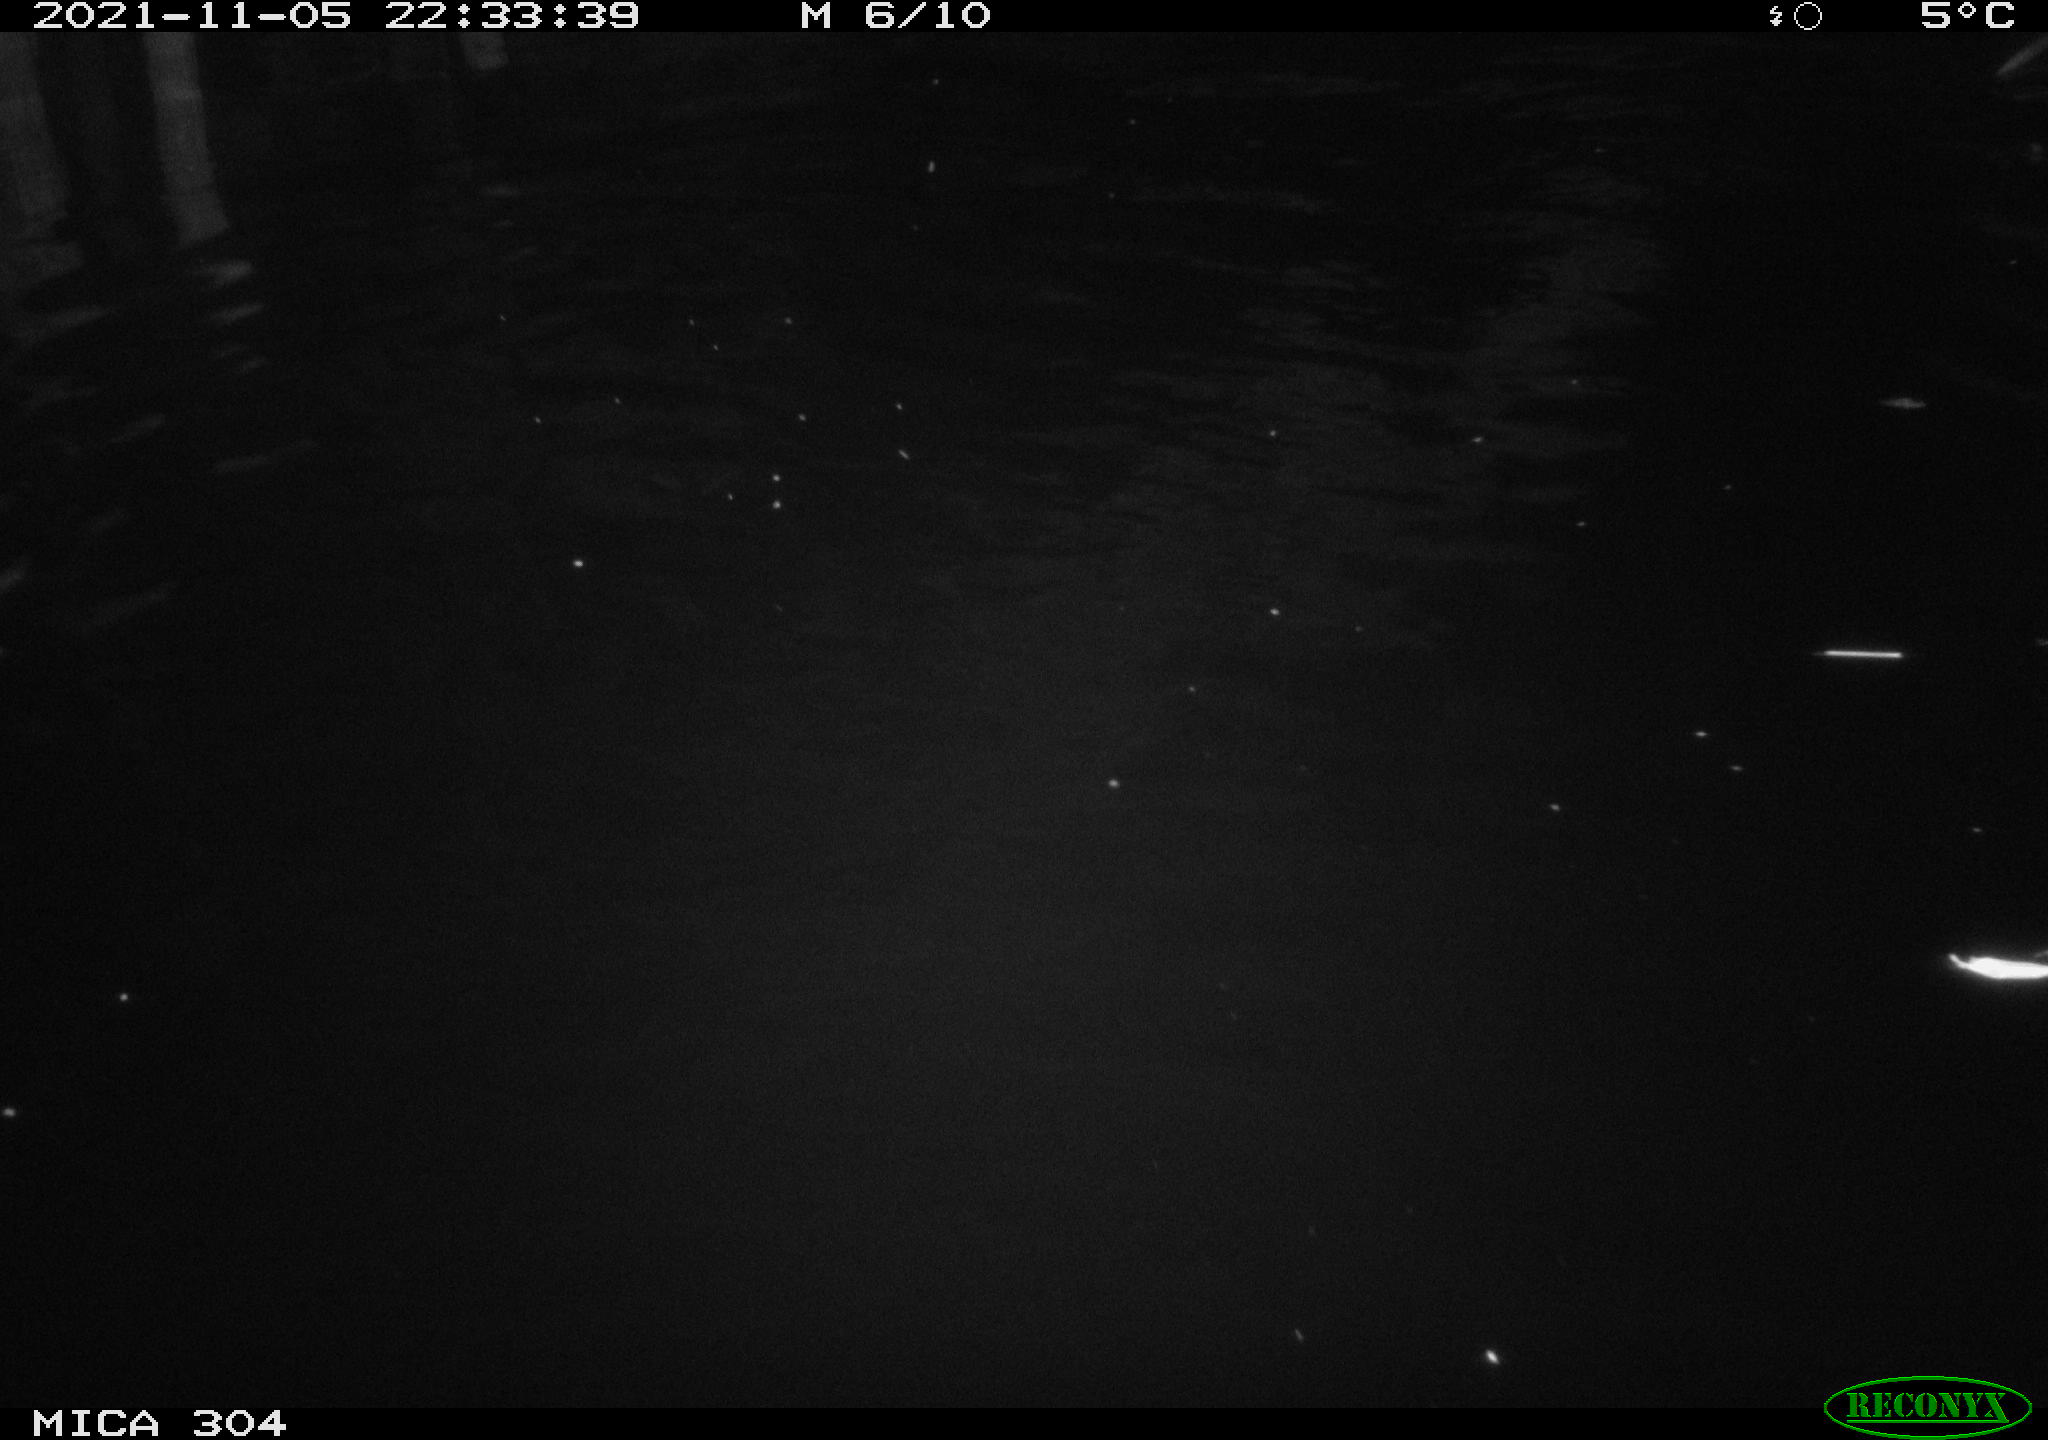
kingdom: Animalia
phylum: Chordata
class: Mammalia
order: Rodentia
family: Cricetidae
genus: Ondatra
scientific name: Ondatra zibethicus
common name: Muskrat
